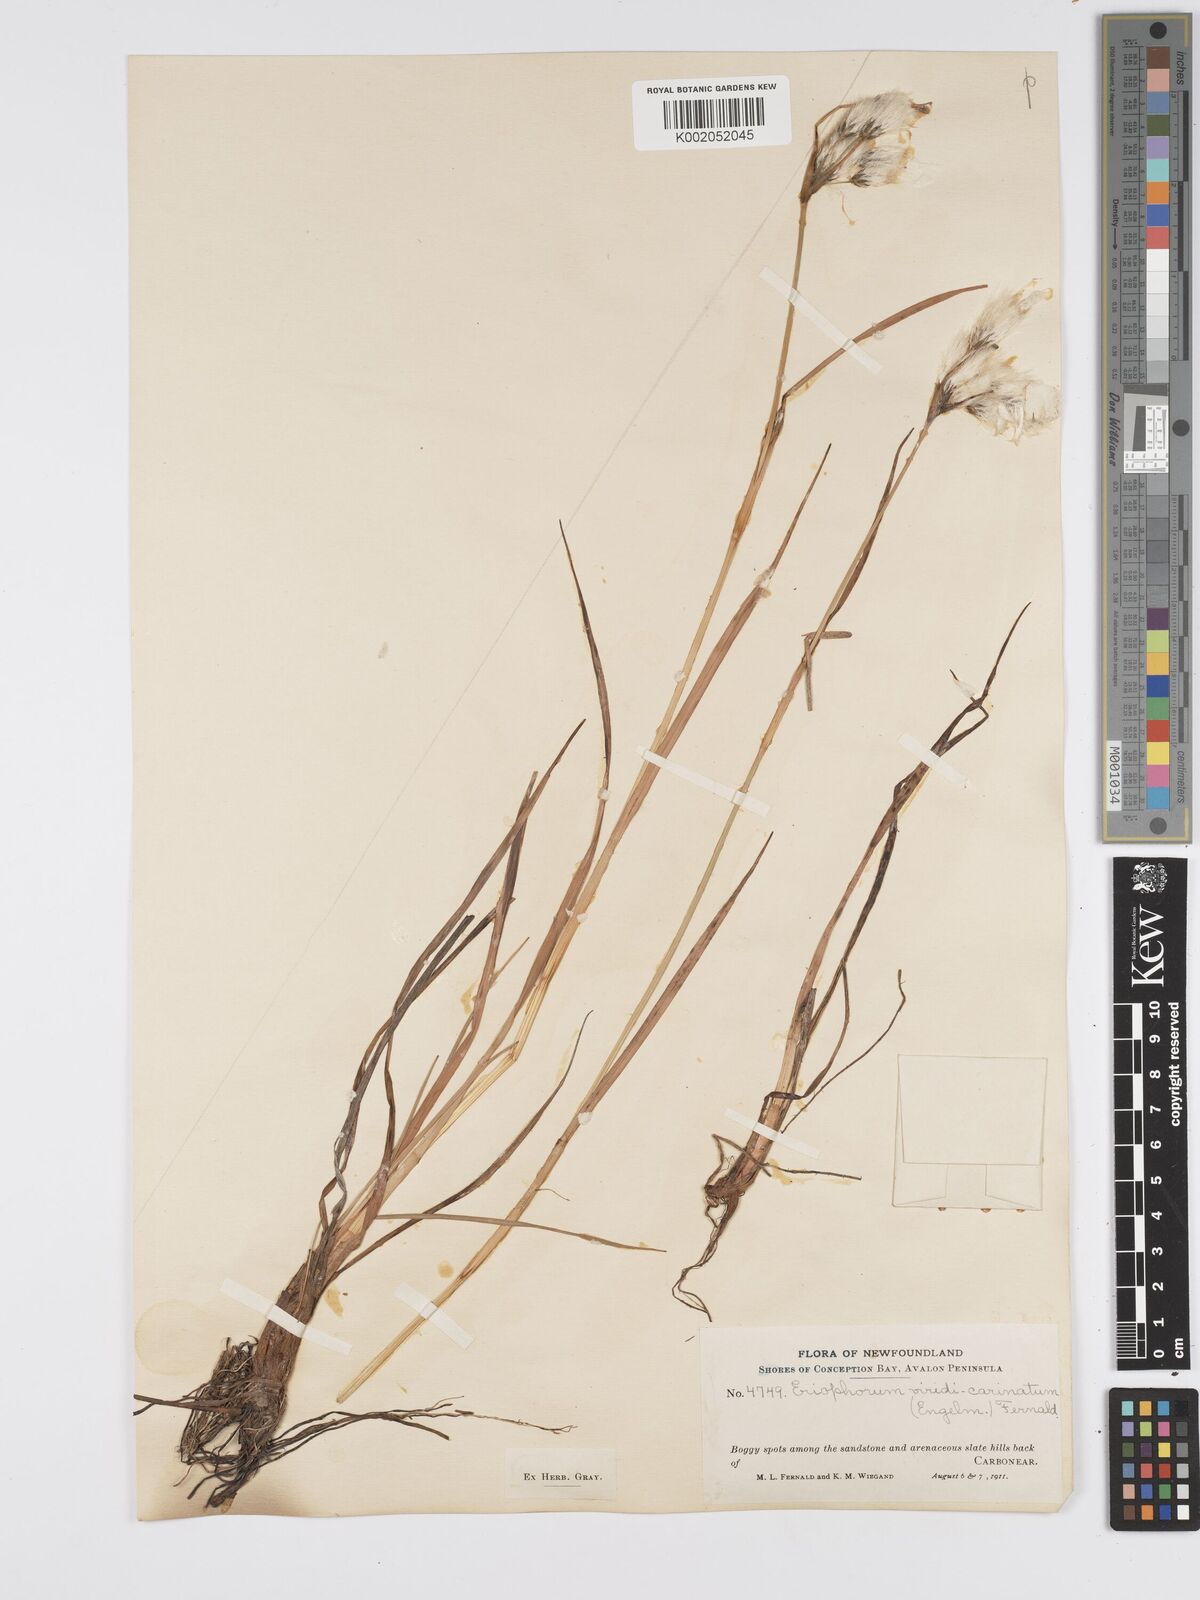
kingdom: Plantae
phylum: Tracheophyta
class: Liliopsida
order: Poales
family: Cyperaceae
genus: Eriophorum
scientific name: Eriophorum viridicarinatum
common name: Green-keeled cottongrass
